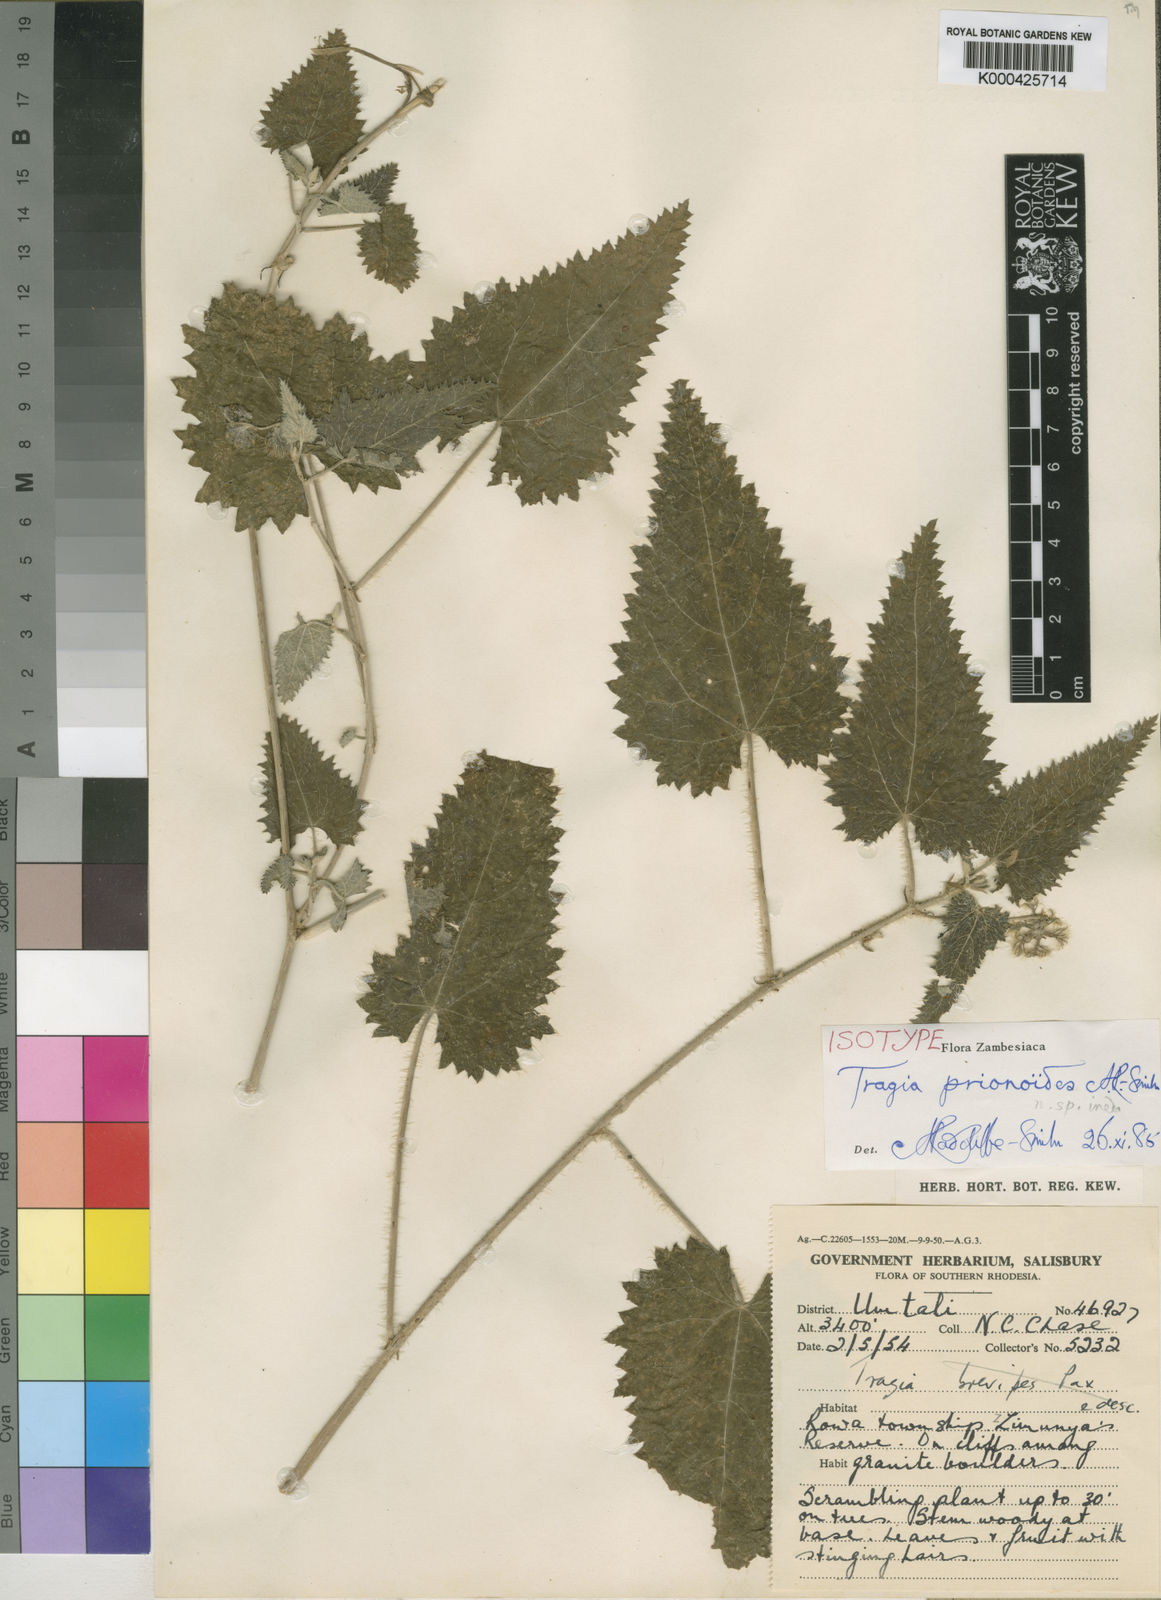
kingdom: Plantae
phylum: Tracheophyta
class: Magnoliopsida
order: Malpighiales
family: Euphorbiaceae
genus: Tragia
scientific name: Tragia prionoides
